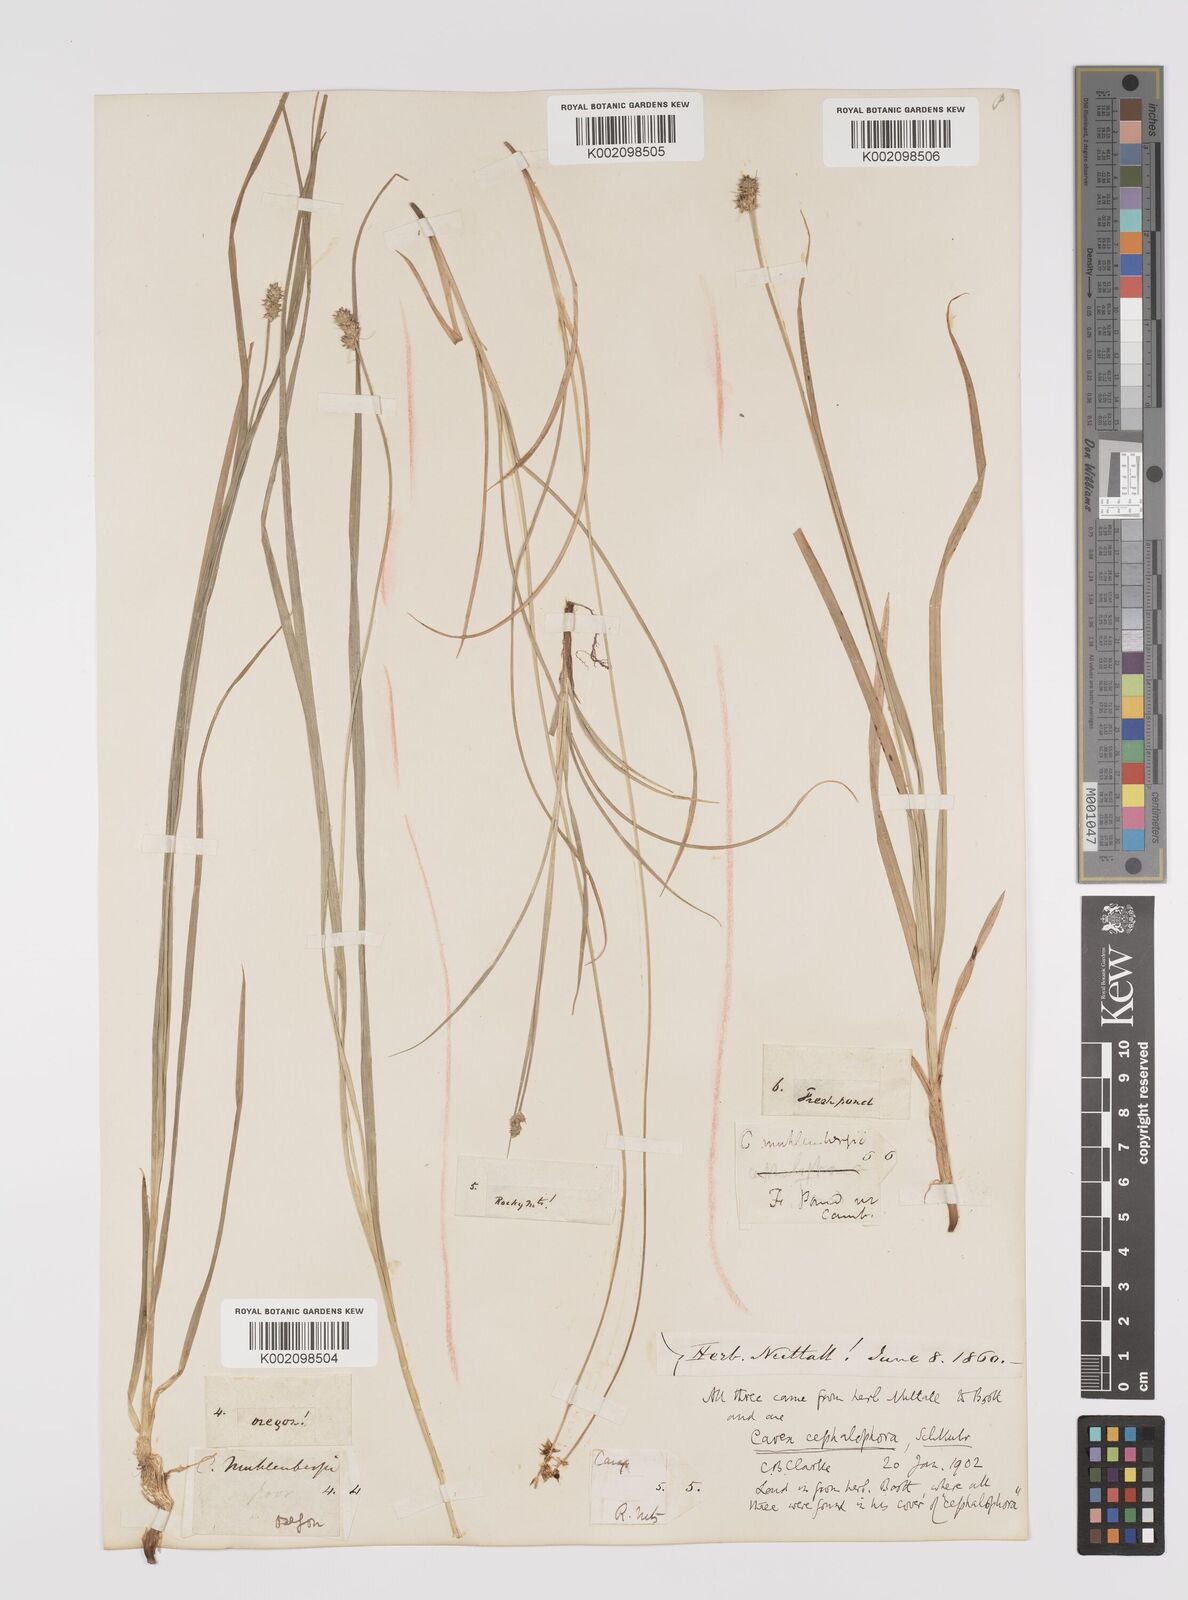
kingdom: Plantae
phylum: Tracheophyta
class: Liliopsida
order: Poales
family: Cyperaceae
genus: Carex
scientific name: Carex cephalophora
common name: Oval-headed sedge
